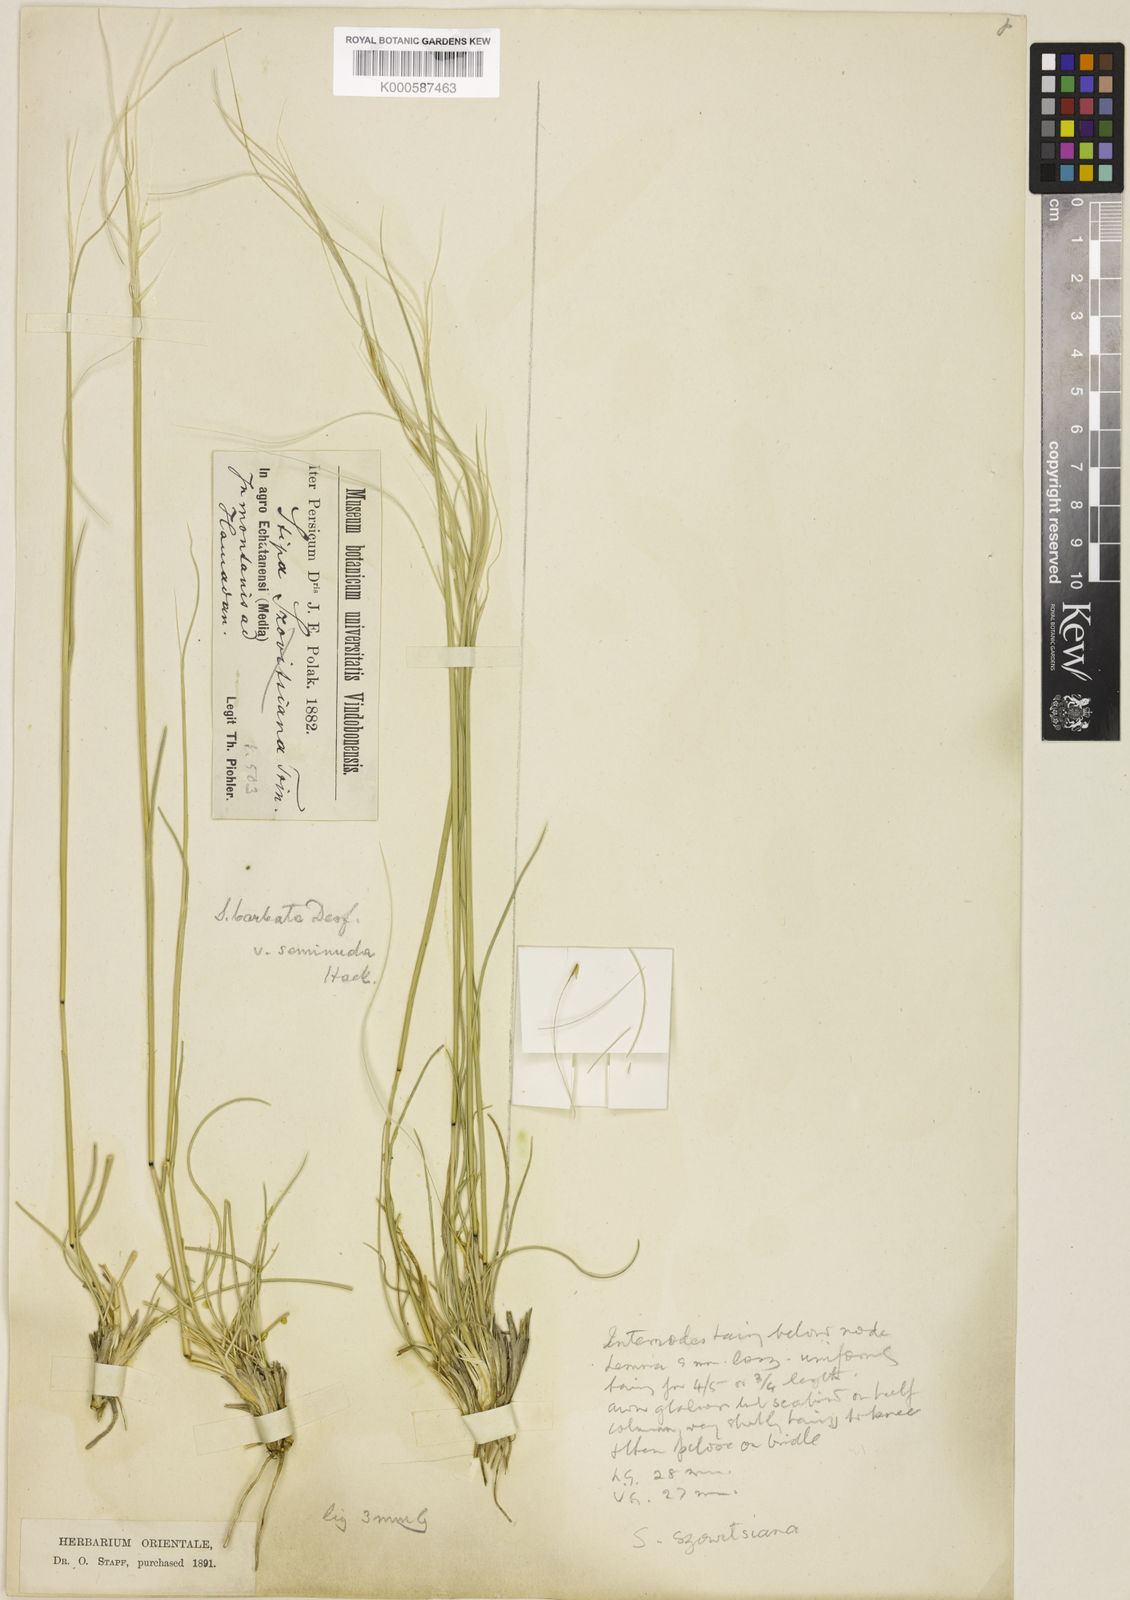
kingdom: Plantae
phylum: Tracheophyta
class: Liliopsida
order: Poales
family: Poaceae
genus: Stipa
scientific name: Stipa barbata
